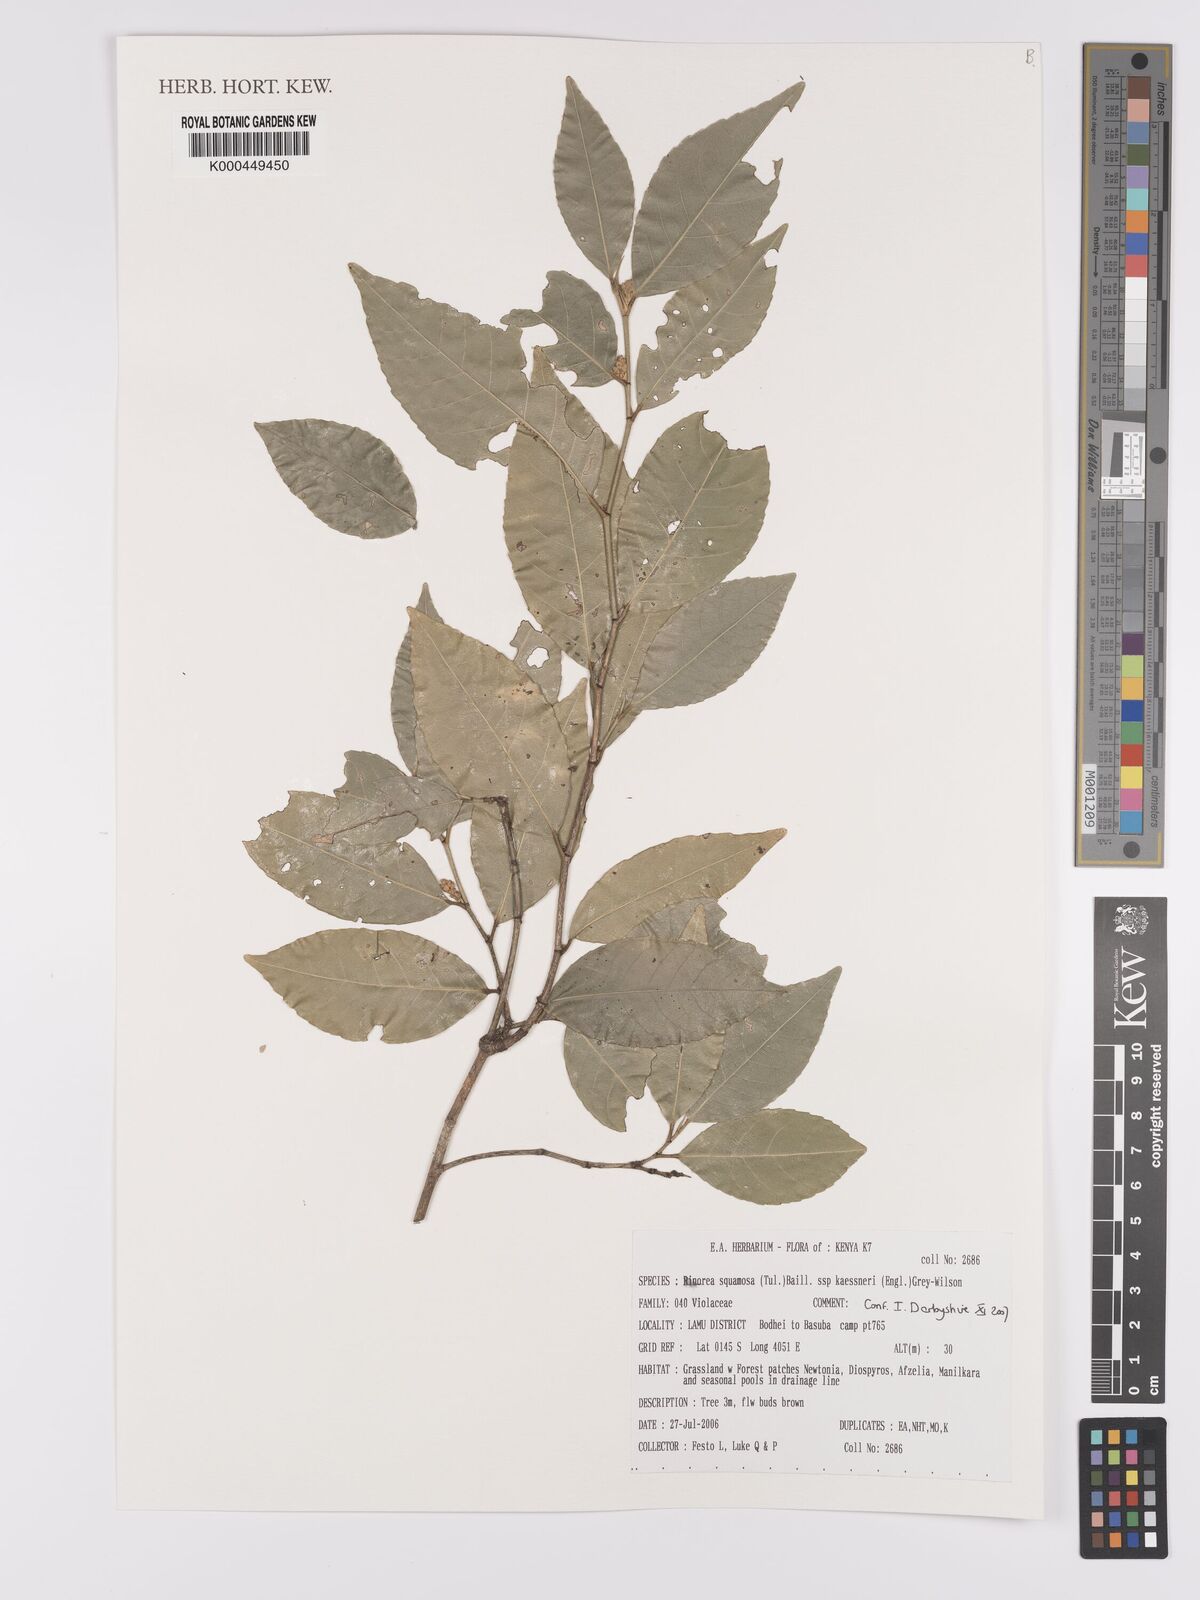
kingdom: Plantae
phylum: Tracheophyta
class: Magnoliopsida
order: Malpighiales
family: Violaceae
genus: Rinorea
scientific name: Rinorea squamosa
